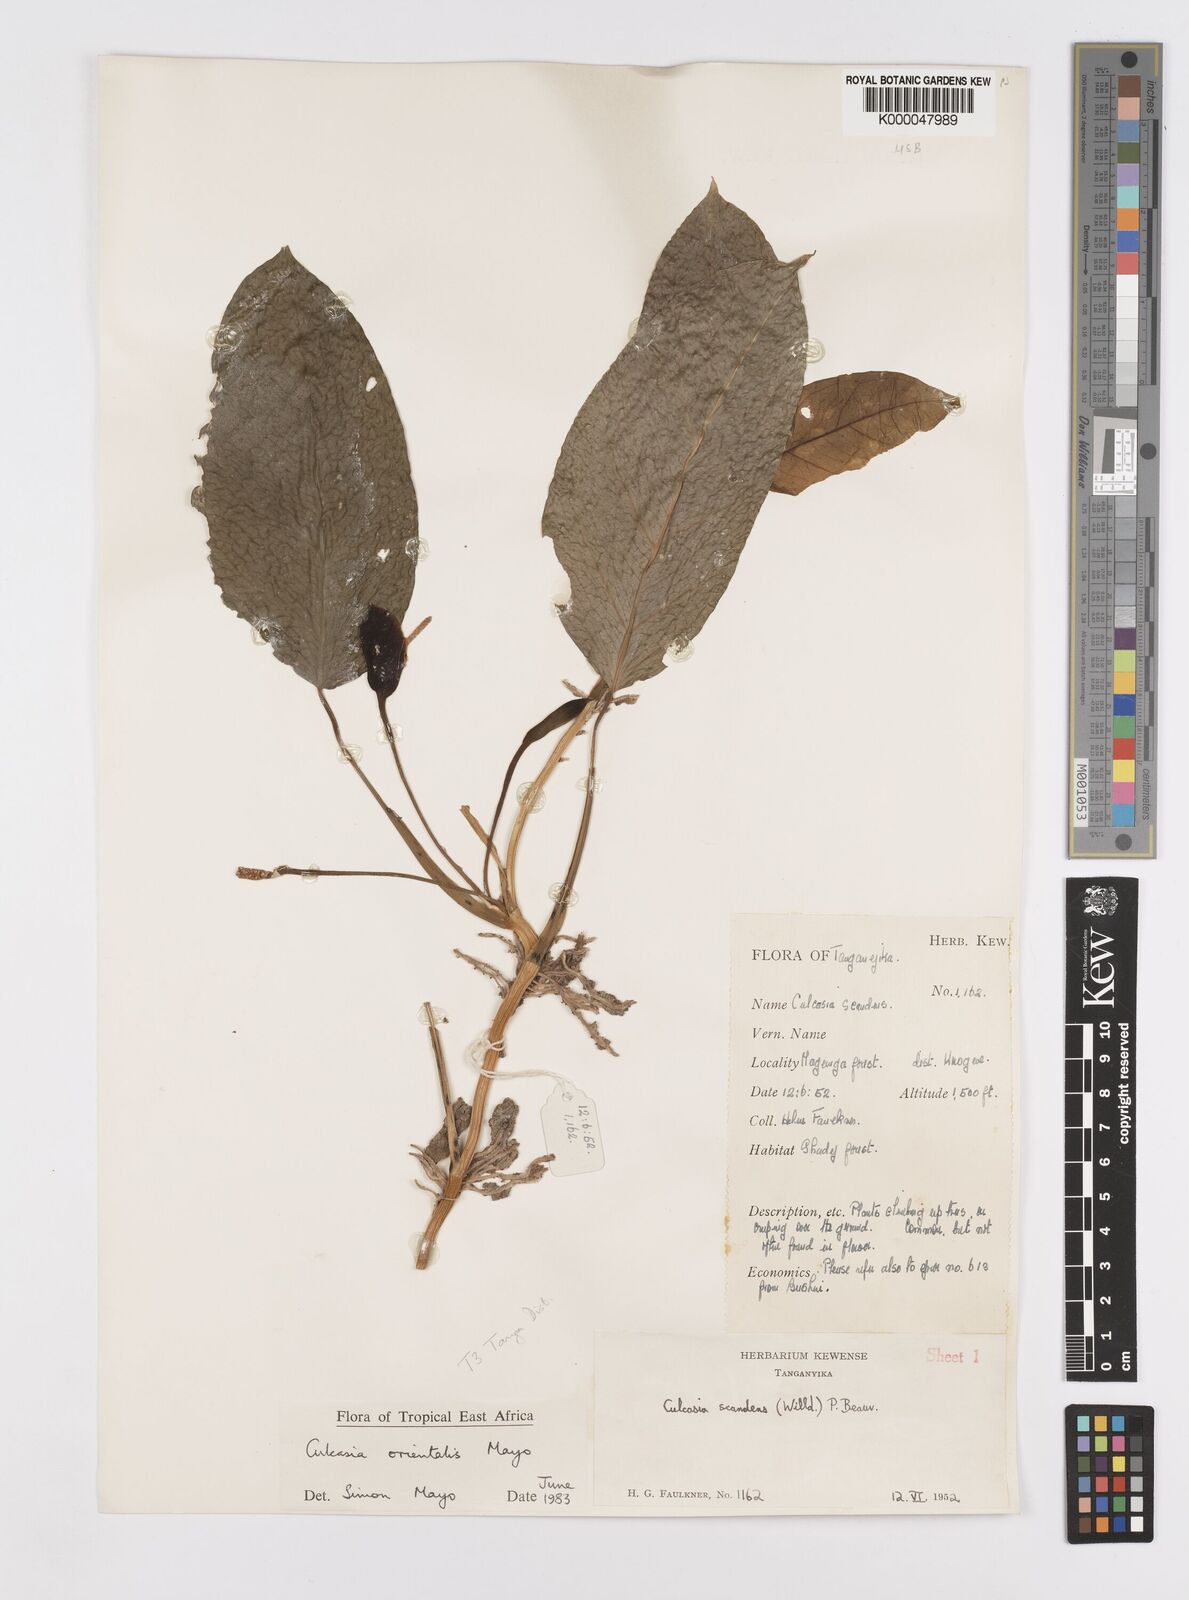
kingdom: Plantae
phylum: Tracheophyta
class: Liliopsida
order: Alismatales
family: Araceae
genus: Culcasia
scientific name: Culcasia orientalis
